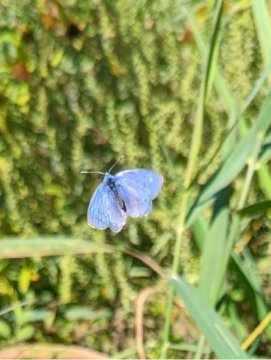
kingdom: Animalia
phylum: Arthropoda
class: Insecta
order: Lepidoptera
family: Lycaenidae
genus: Polyommatus
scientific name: Polyommatus icarus
